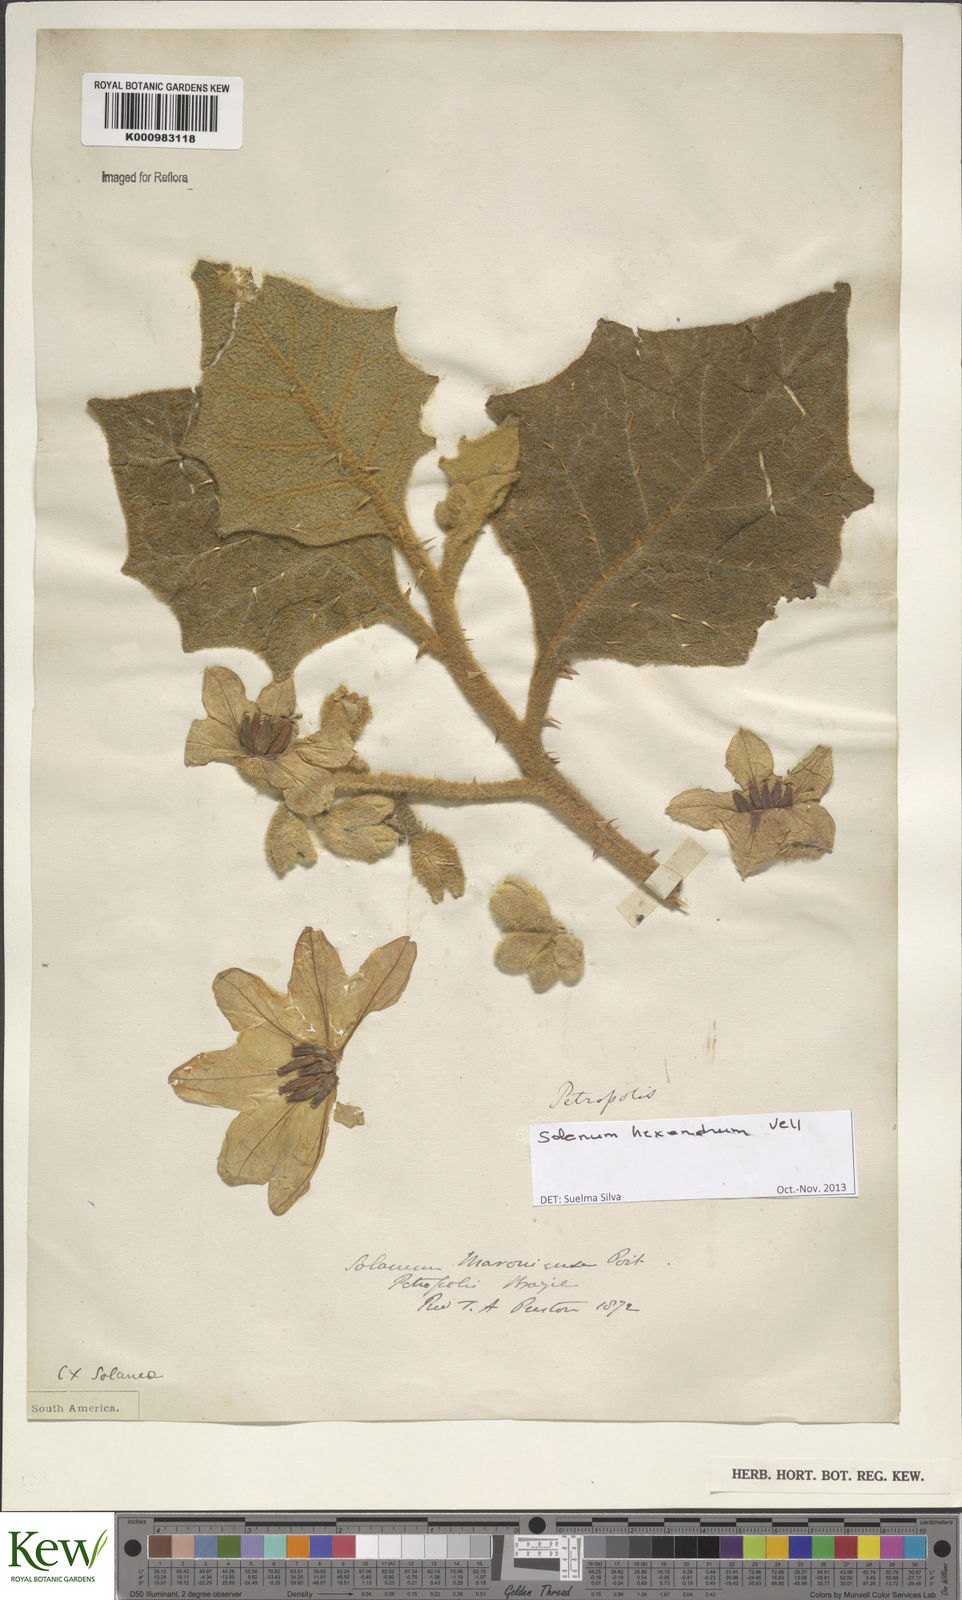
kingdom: Plantae
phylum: Tracheophyta
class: Magnoliopsida
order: Solanales
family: Solanaceae
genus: Solanum
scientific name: Solanum hexandrum
